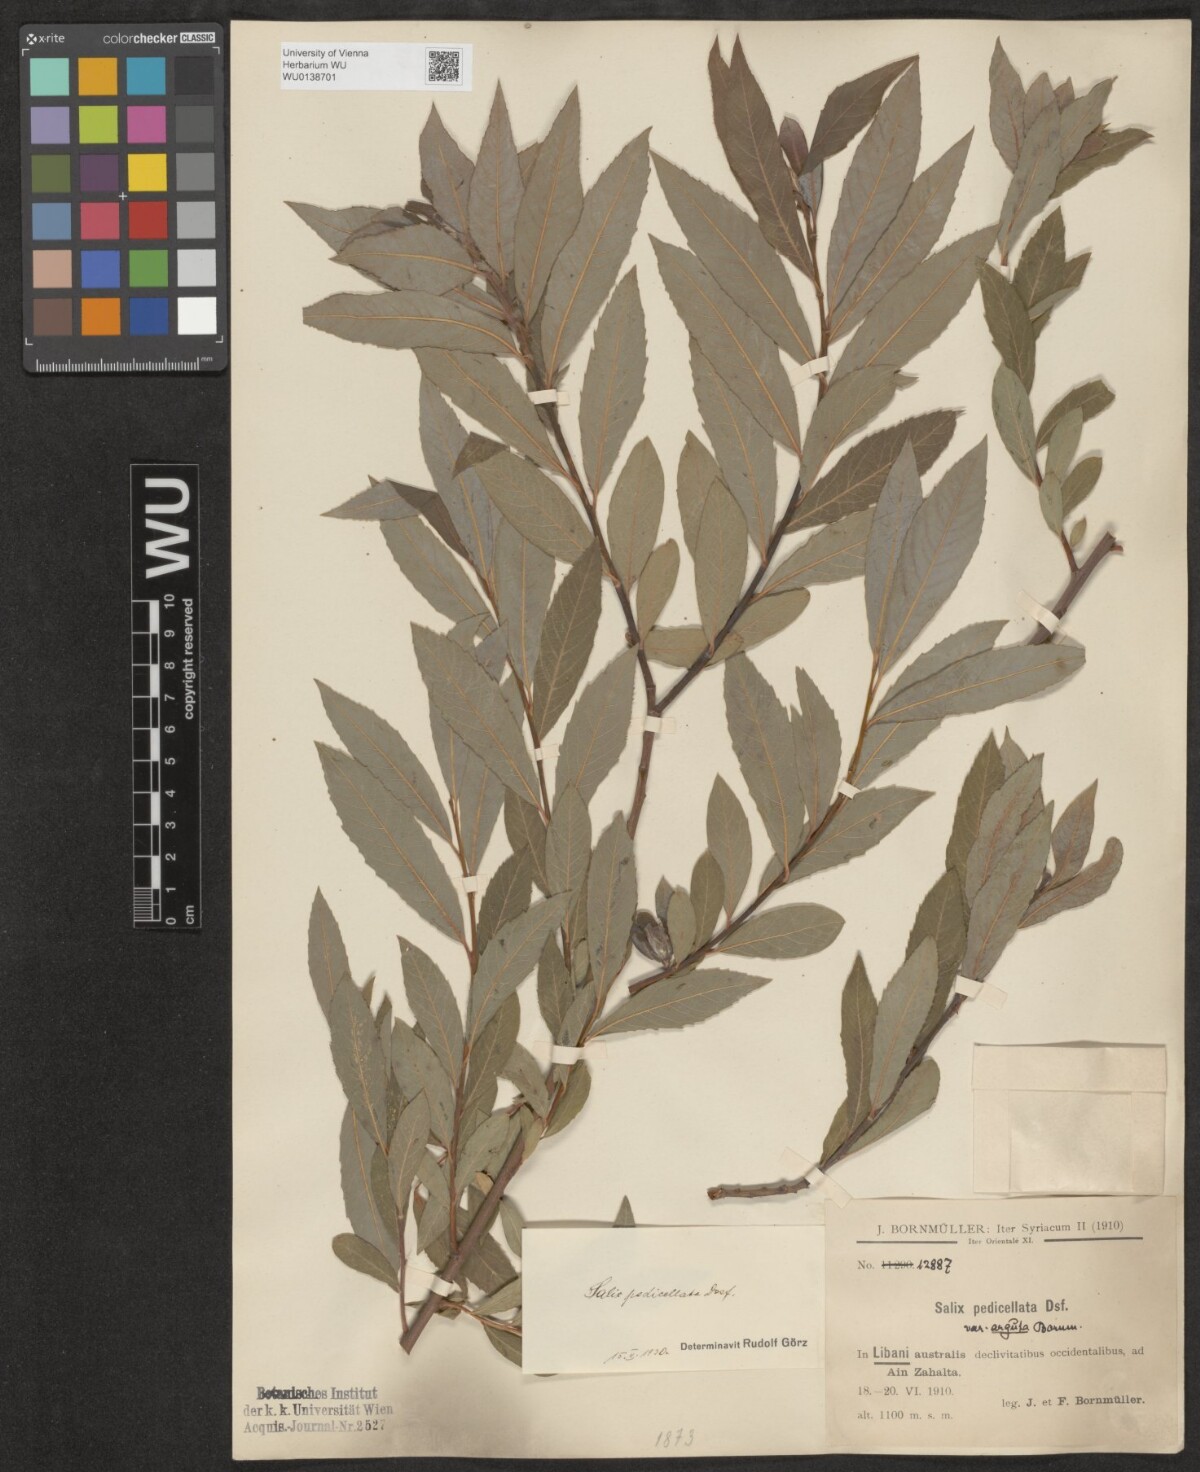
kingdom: Plantae
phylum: Tracheophyta
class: Magnoliopsida
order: Malpighiales
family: Salicaceae
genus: Salix
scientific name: Salix pedicellata
